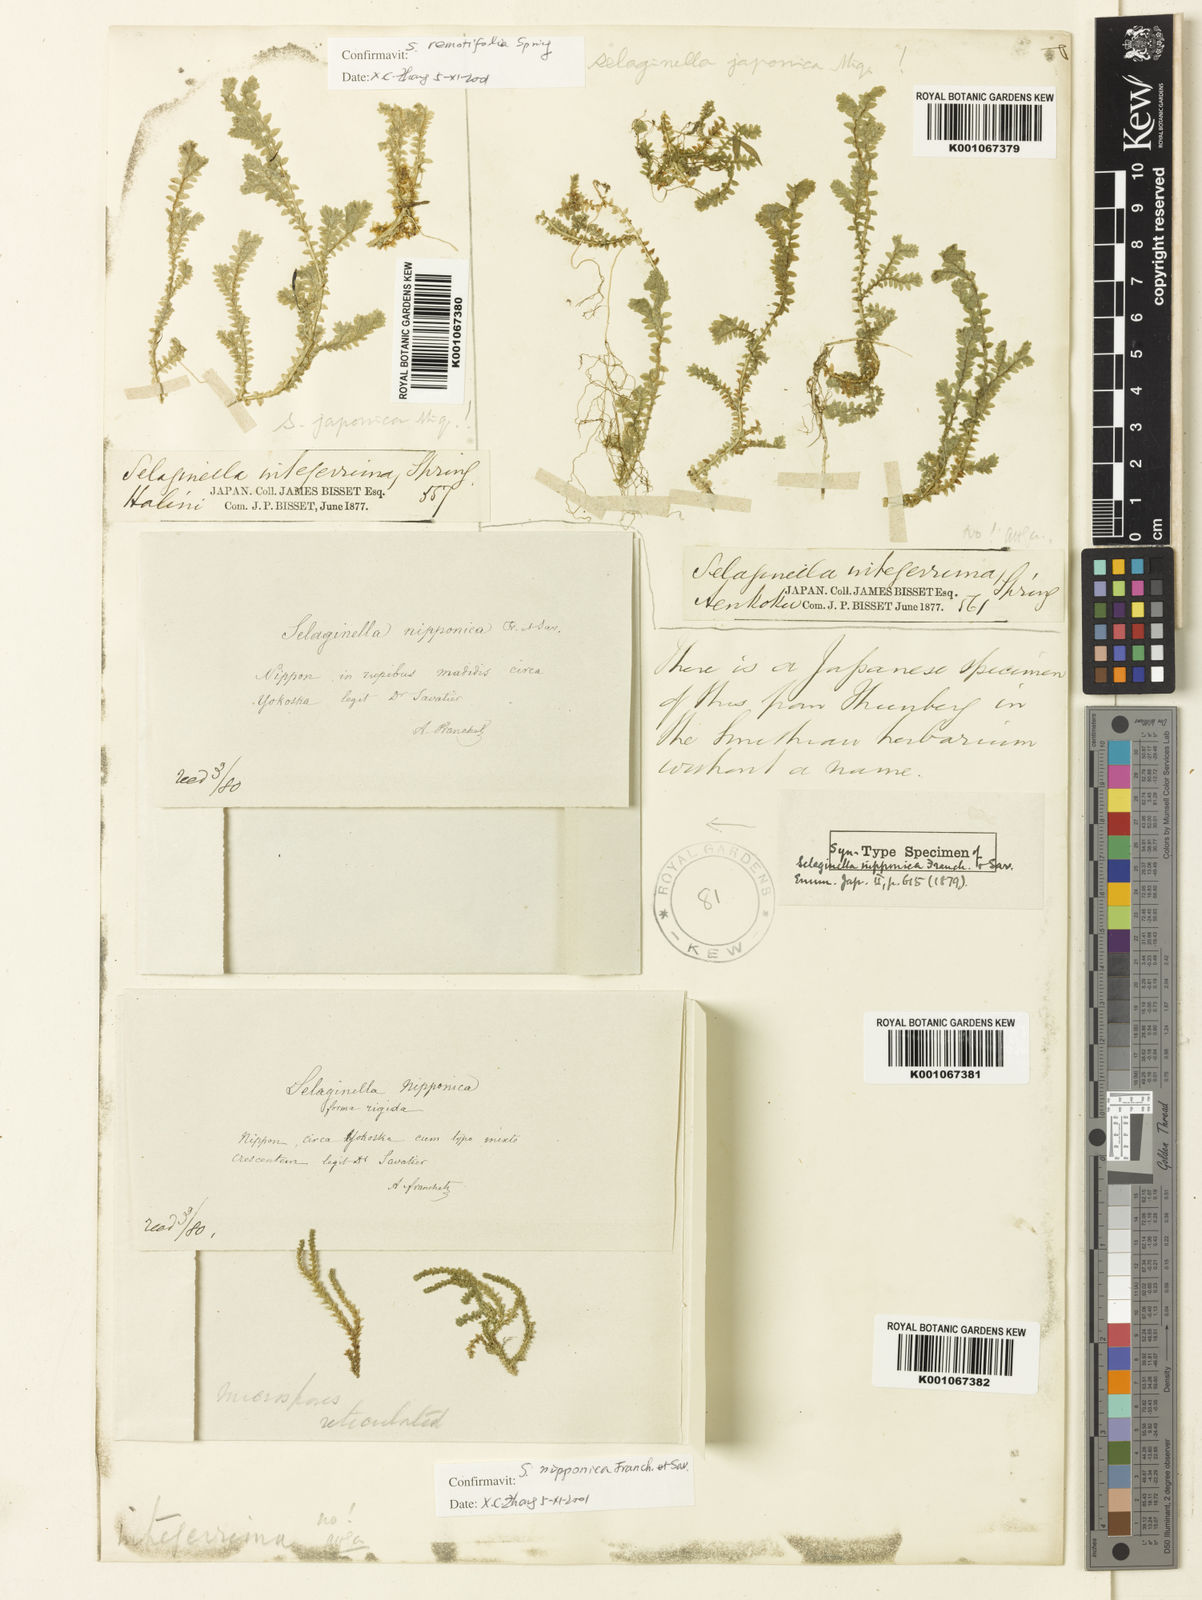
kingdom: Plantae
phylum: Tracheophyta
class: Lycopodiopsida
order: Selaginellales
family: Selaginellaceae
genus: Selaginella
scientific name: Selaginella nipponica
